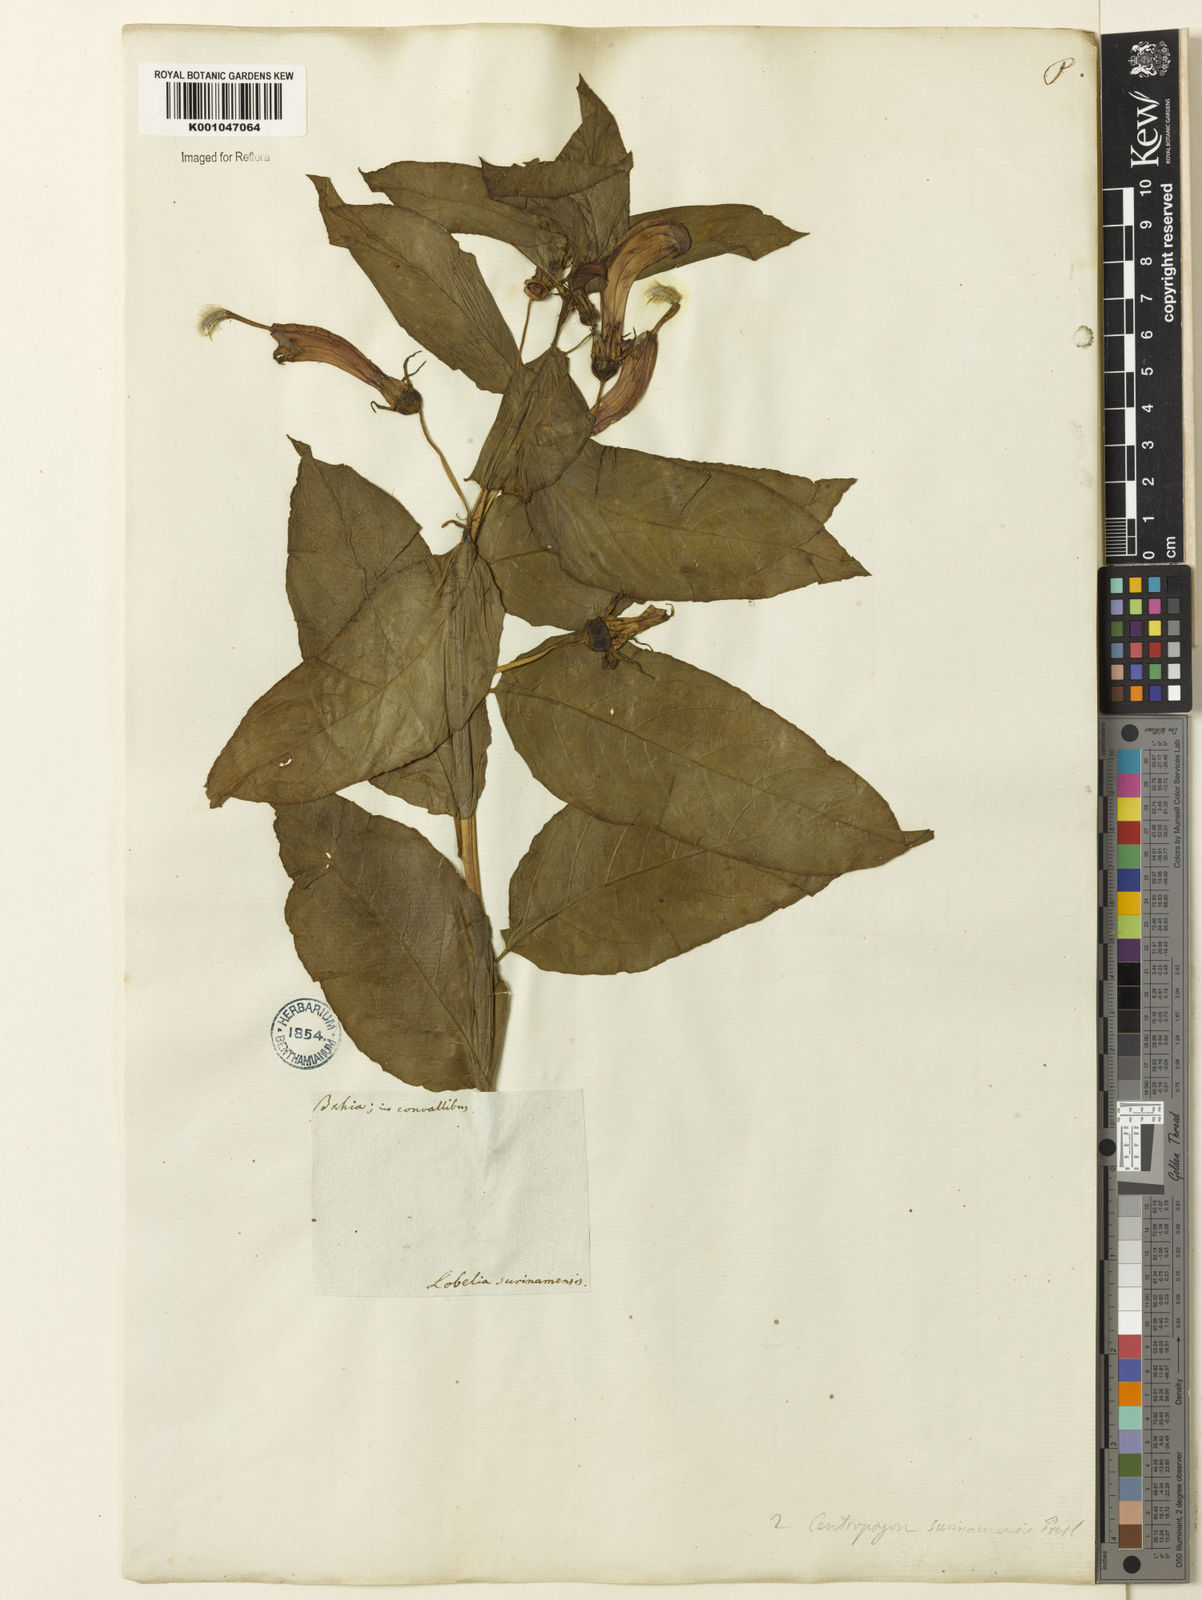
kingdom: Plantae
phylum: Tracheophyta
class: Magnoliopsida
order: Asterales
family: Campanulaceae
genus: Centropogon
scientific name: Centropogon cornutus
